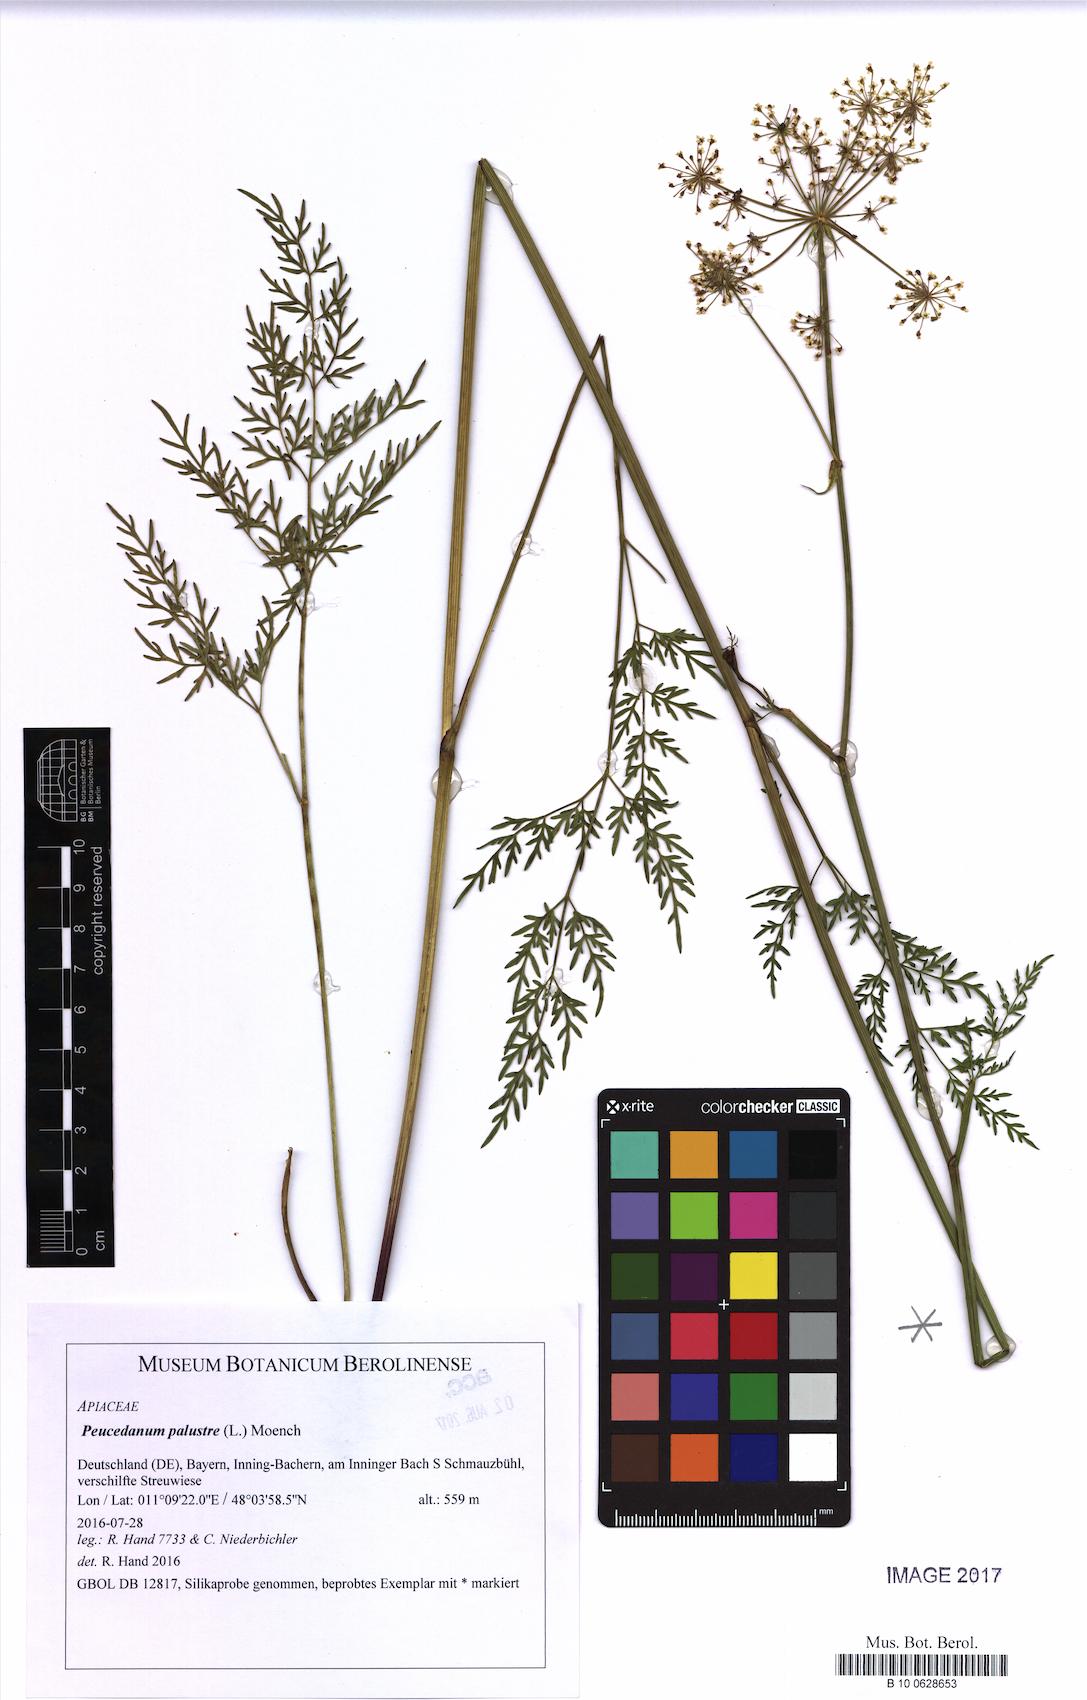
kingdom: Plantae
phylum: Tracheophyta
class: Magnoliopsida
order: Apiales
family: Apiaceae
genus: Thysselinum
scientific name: Thysselinum palustre
